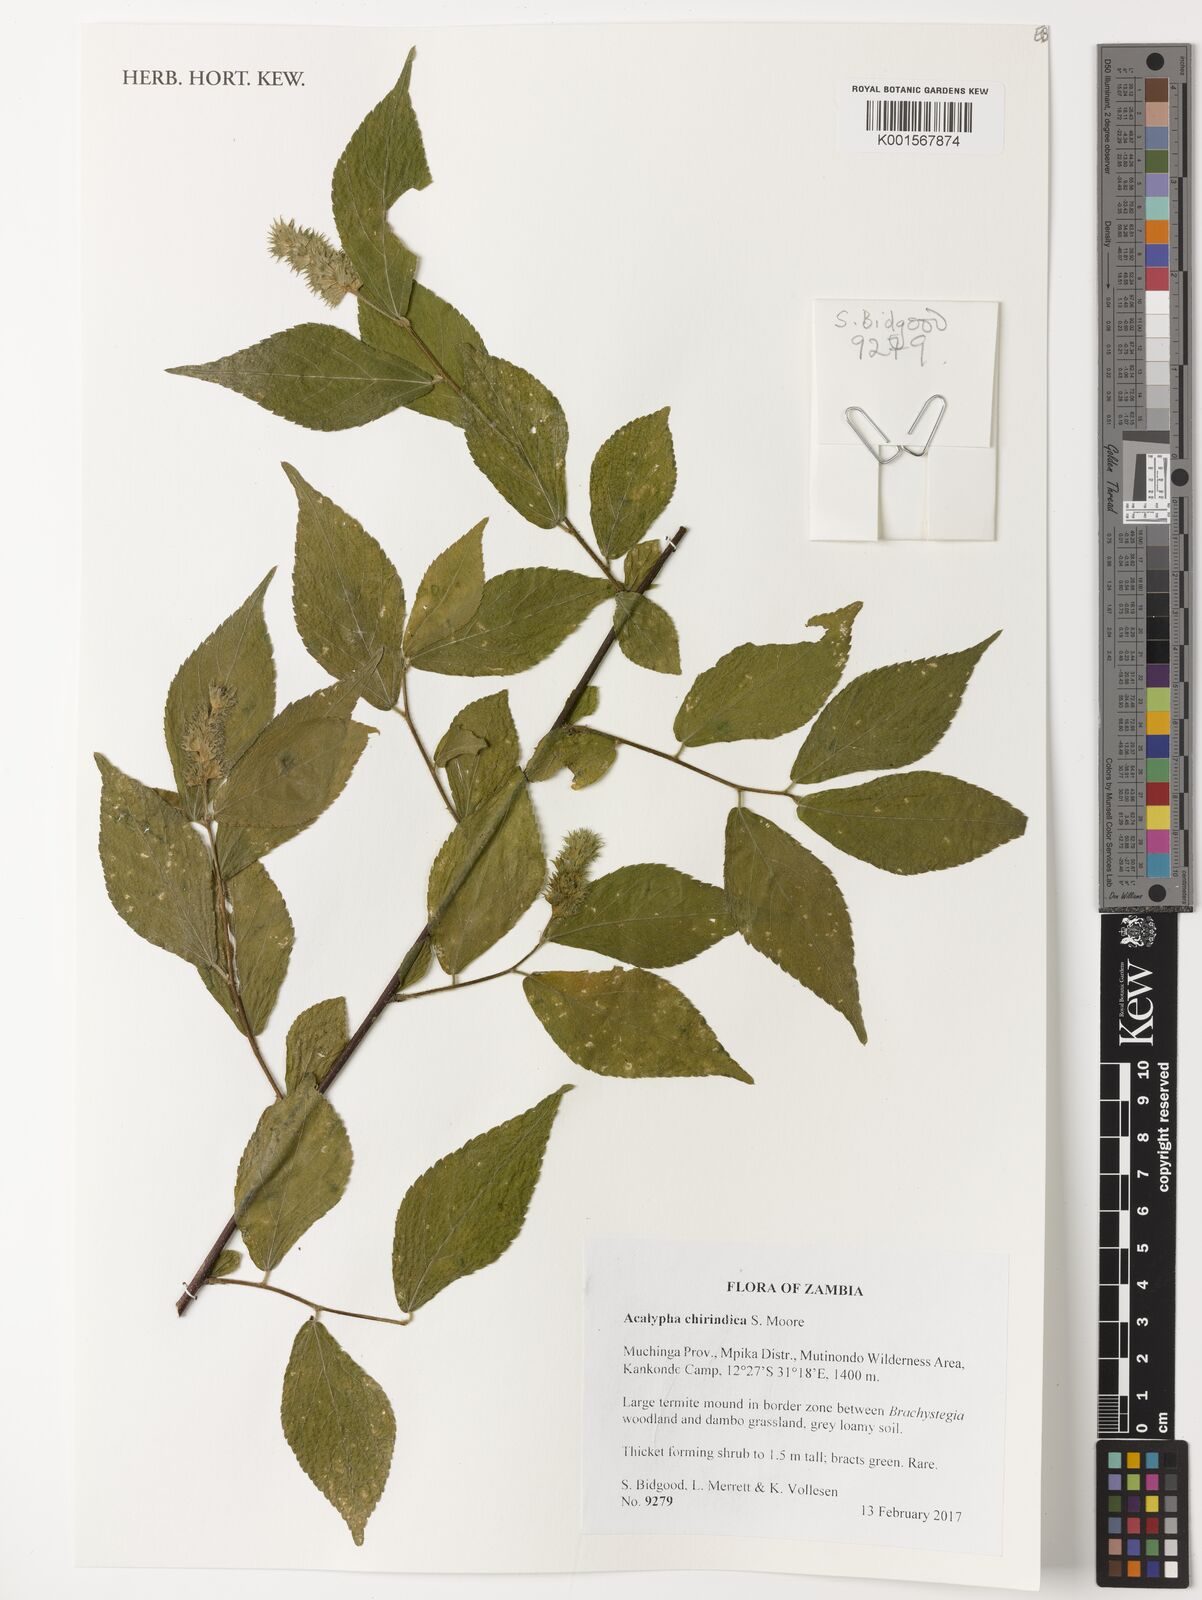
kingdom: Plantae
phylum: Tracheophyta
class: Magnoliopsida
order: Malpighiales
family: Euphorbiaceae
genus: Acalypha
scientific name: Acalypha chirindica
